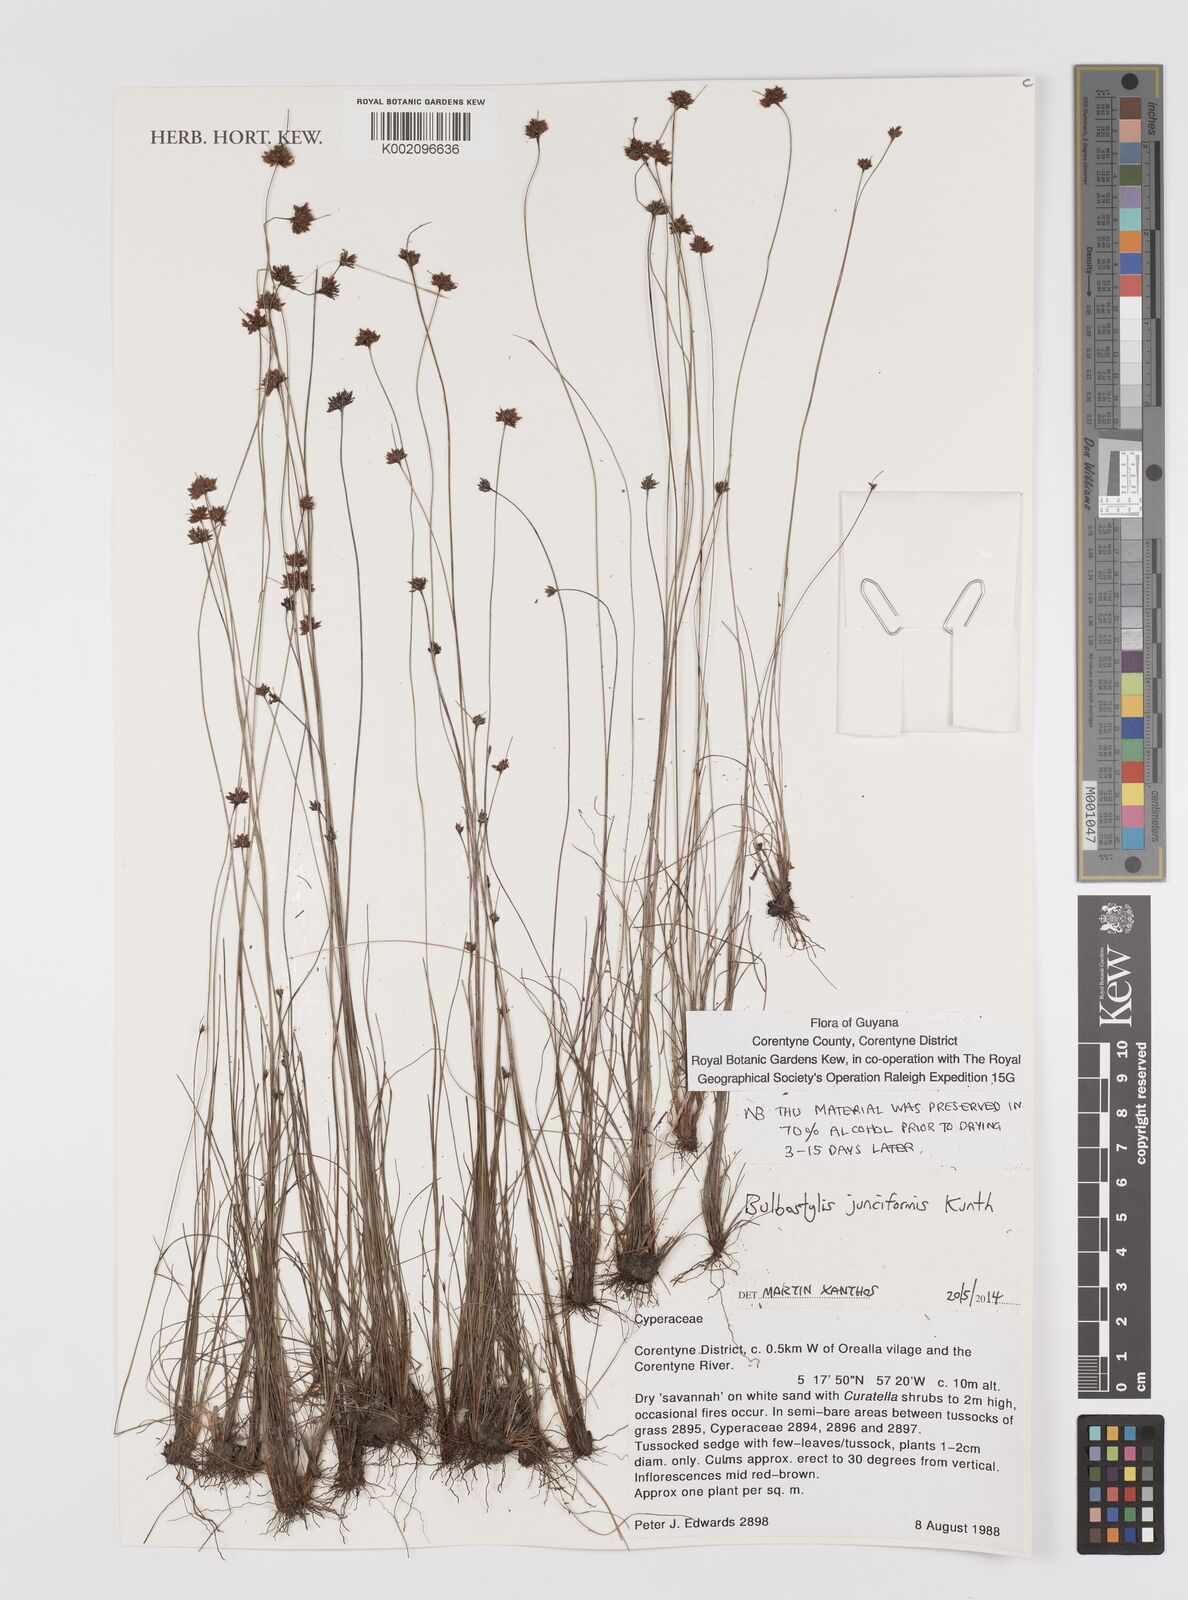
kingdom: Plantae
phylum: Tracheophyta
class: Liliopsida
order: Poales
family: Cyperaceae
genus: Bulbostylis
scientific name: Bulbostylis junciformis
